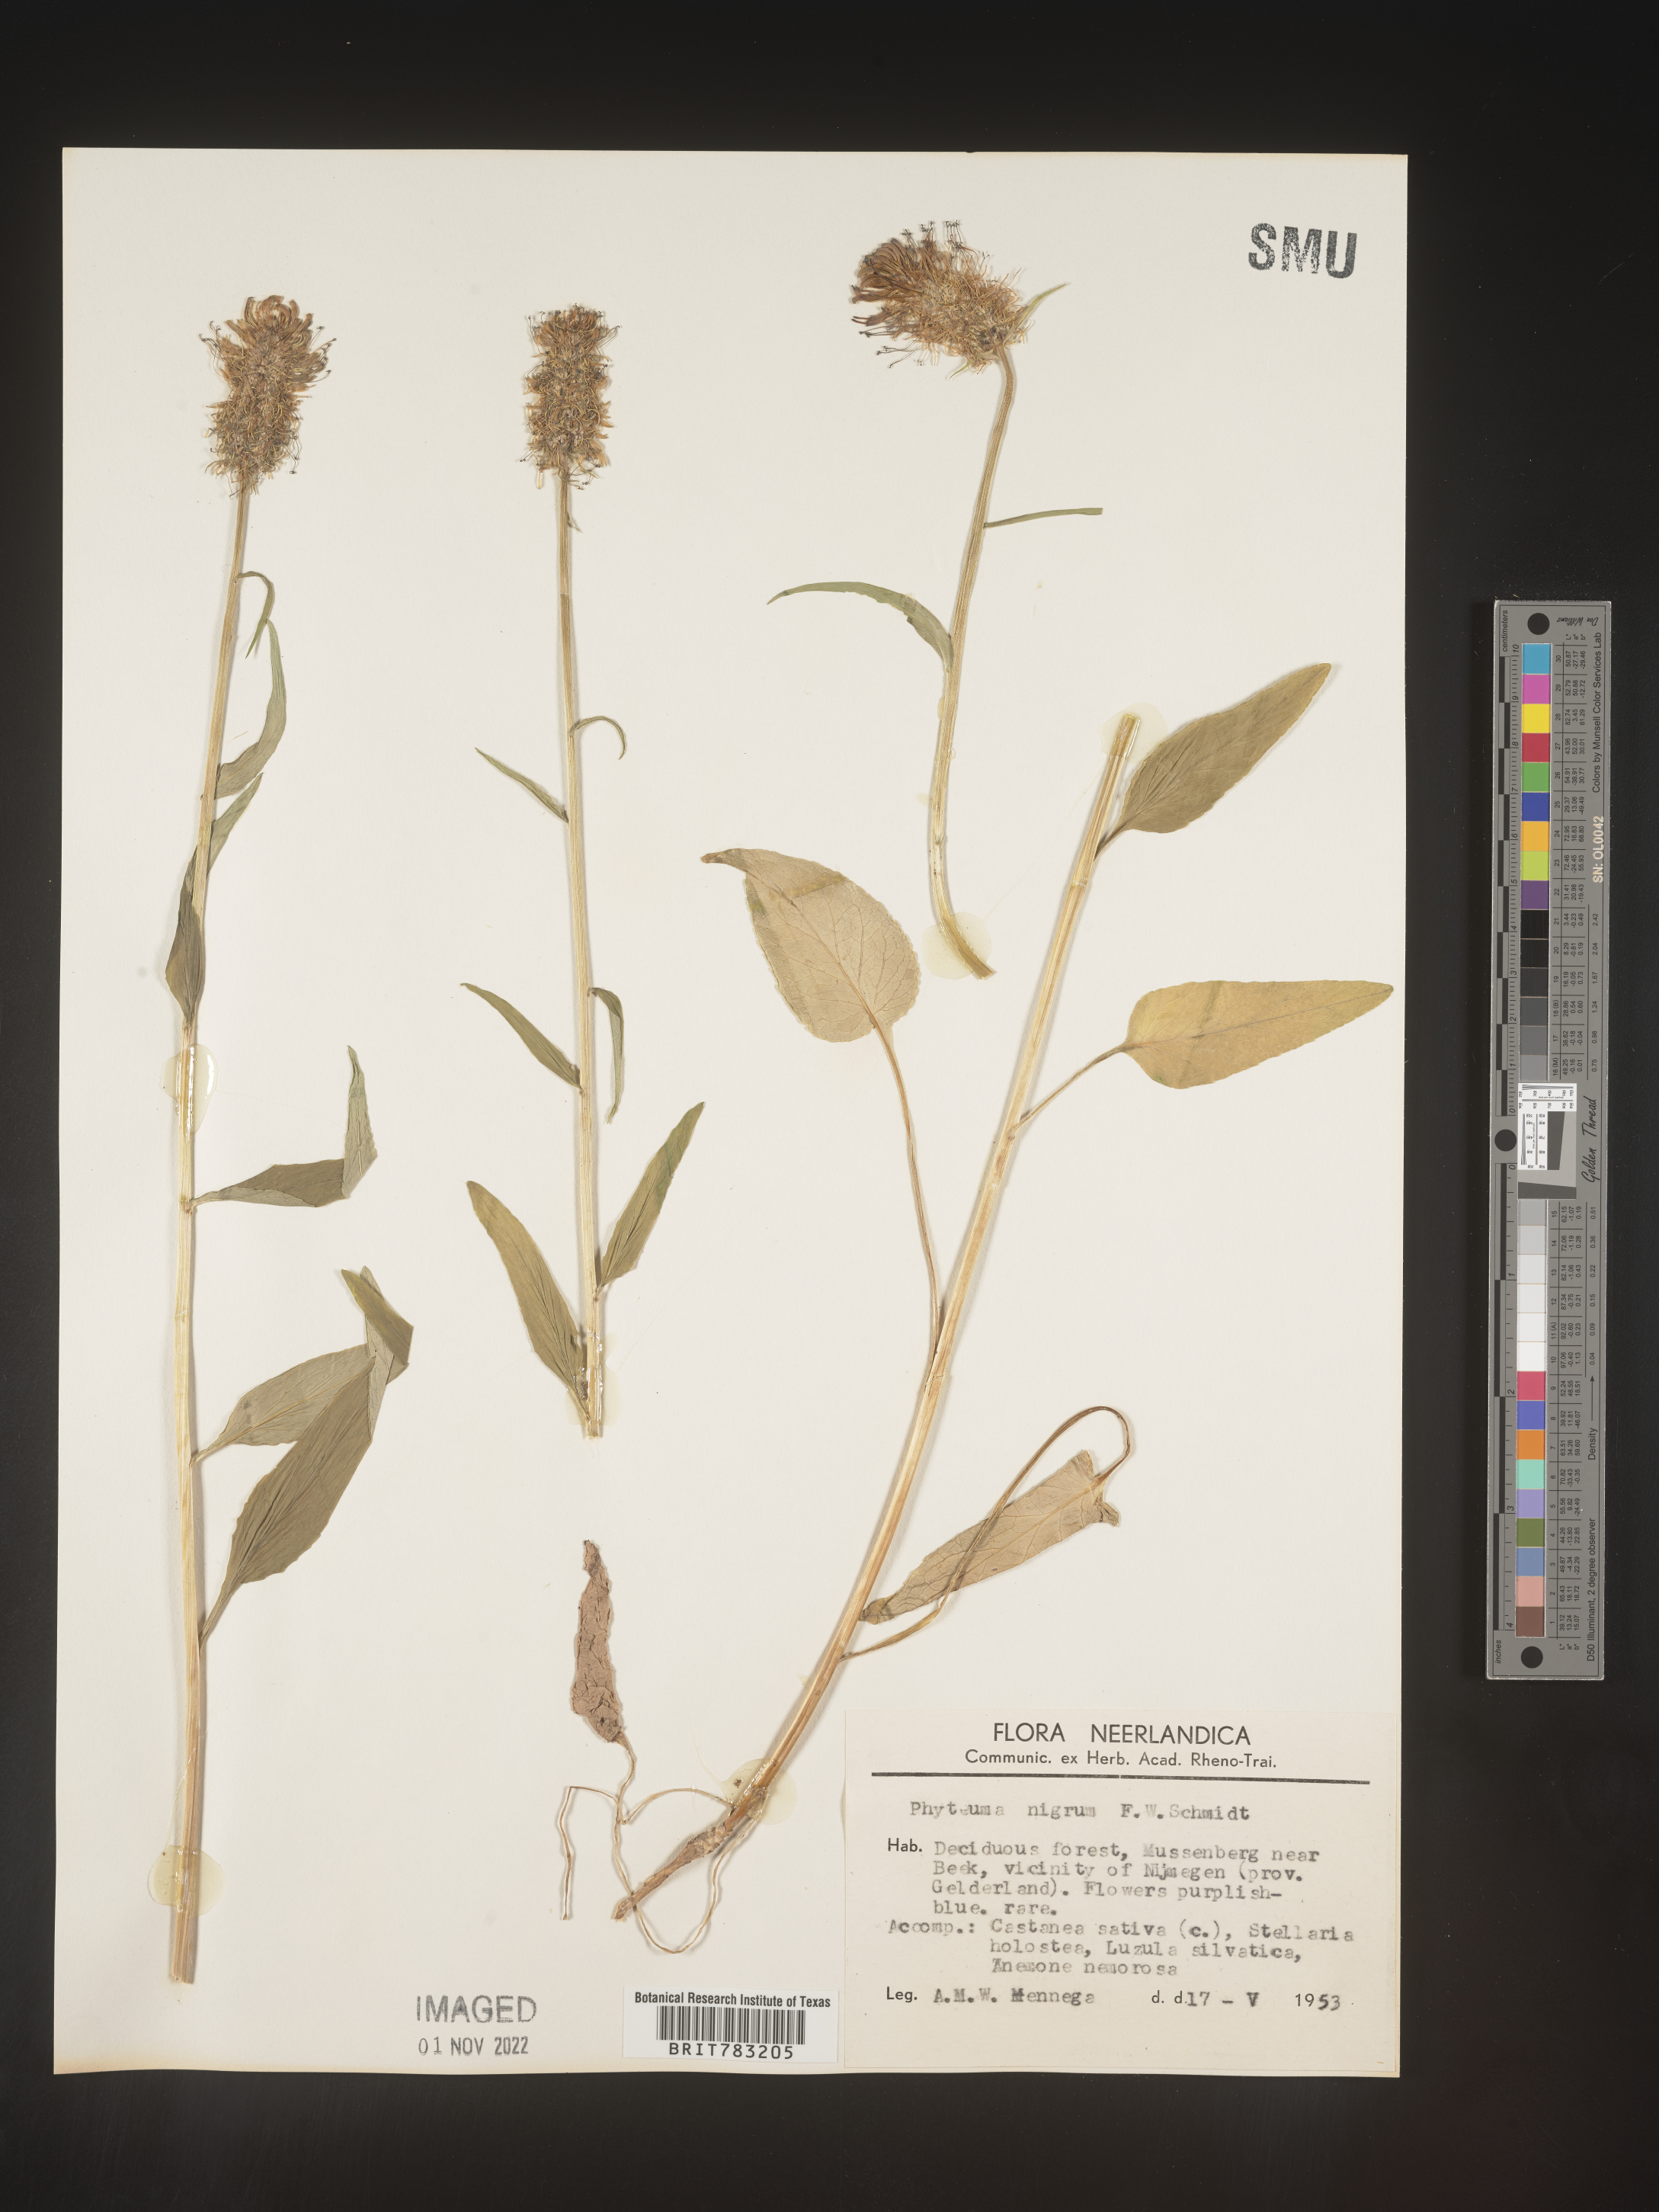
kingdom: Plantae
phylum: Tracheophyta
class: Magnoliopsida
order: Asterales
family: Campanulaceae
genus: Phyteuma
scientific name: Phyteuma
